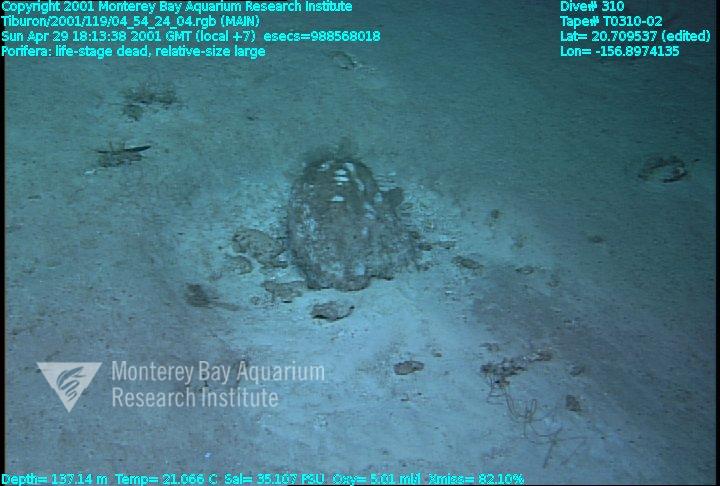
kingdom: Animalia
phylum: Porifera
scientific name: Porifera
